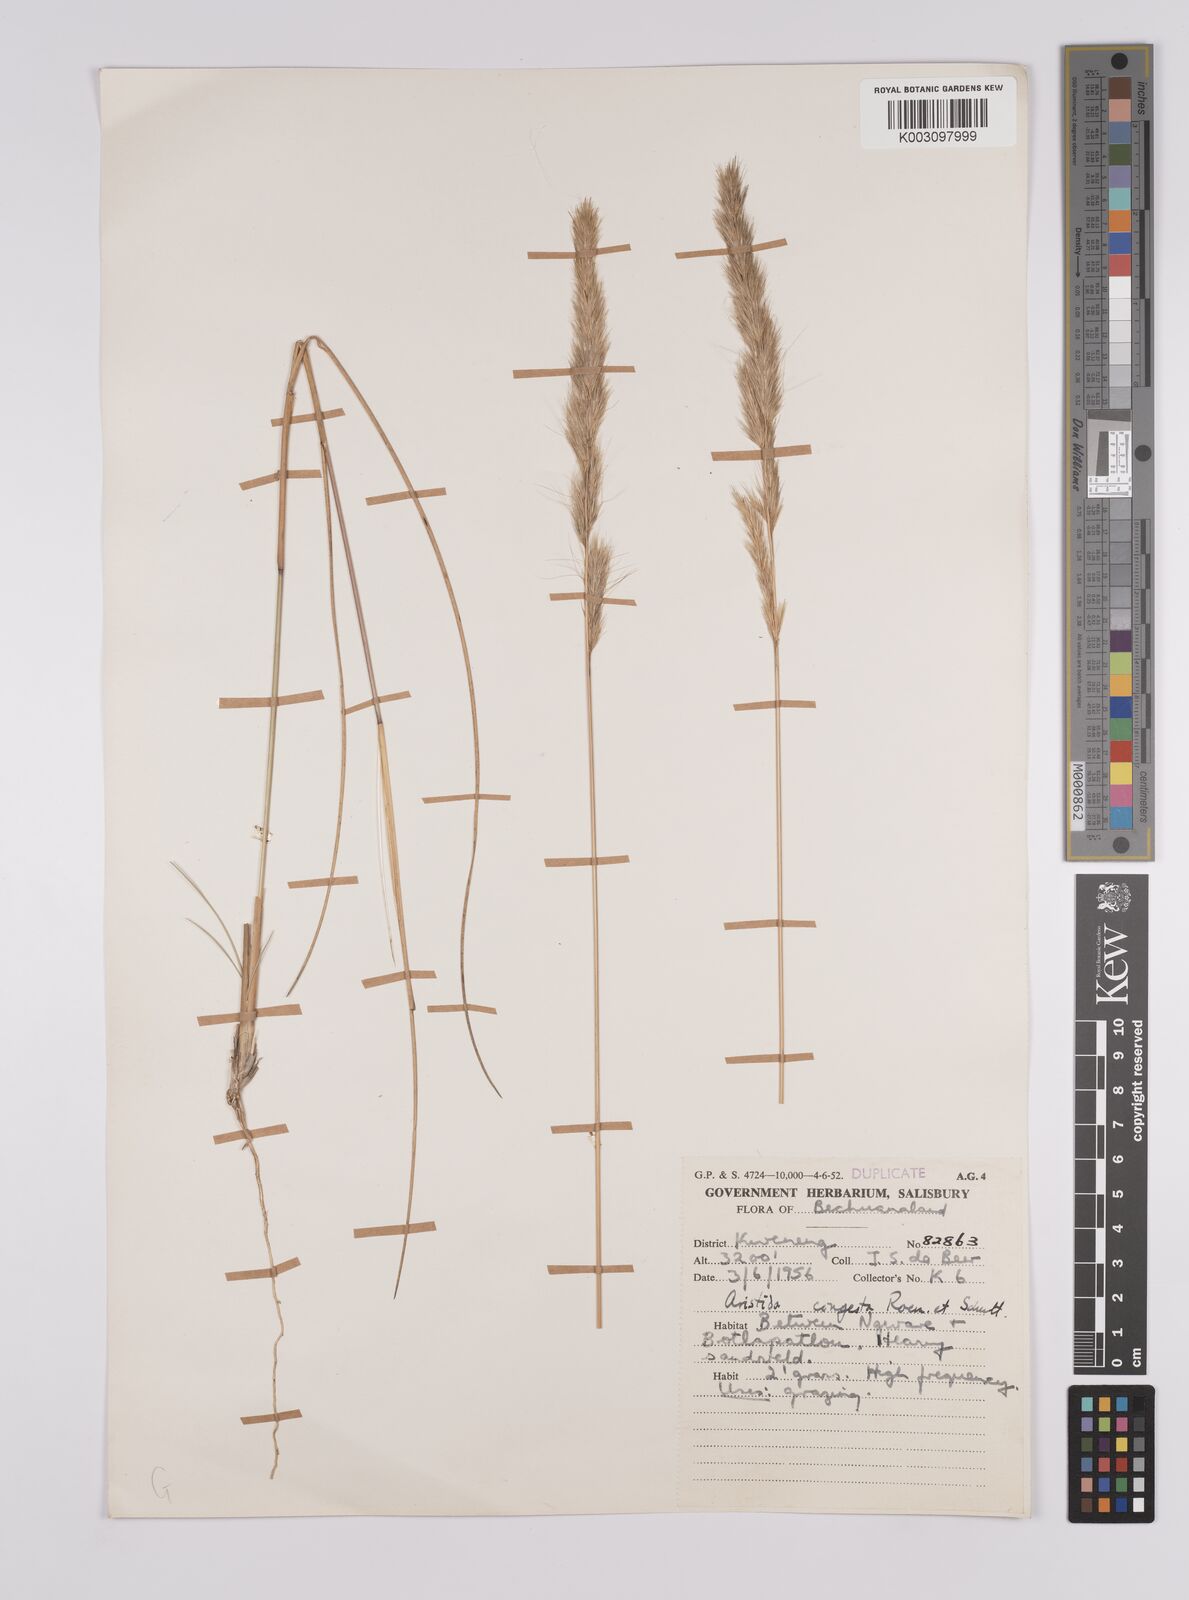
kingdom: Plantae
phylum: Tracheophyta
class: Liliopsida
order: Poales
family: Poaceae
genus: Aristida
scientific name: Aristida congesta
